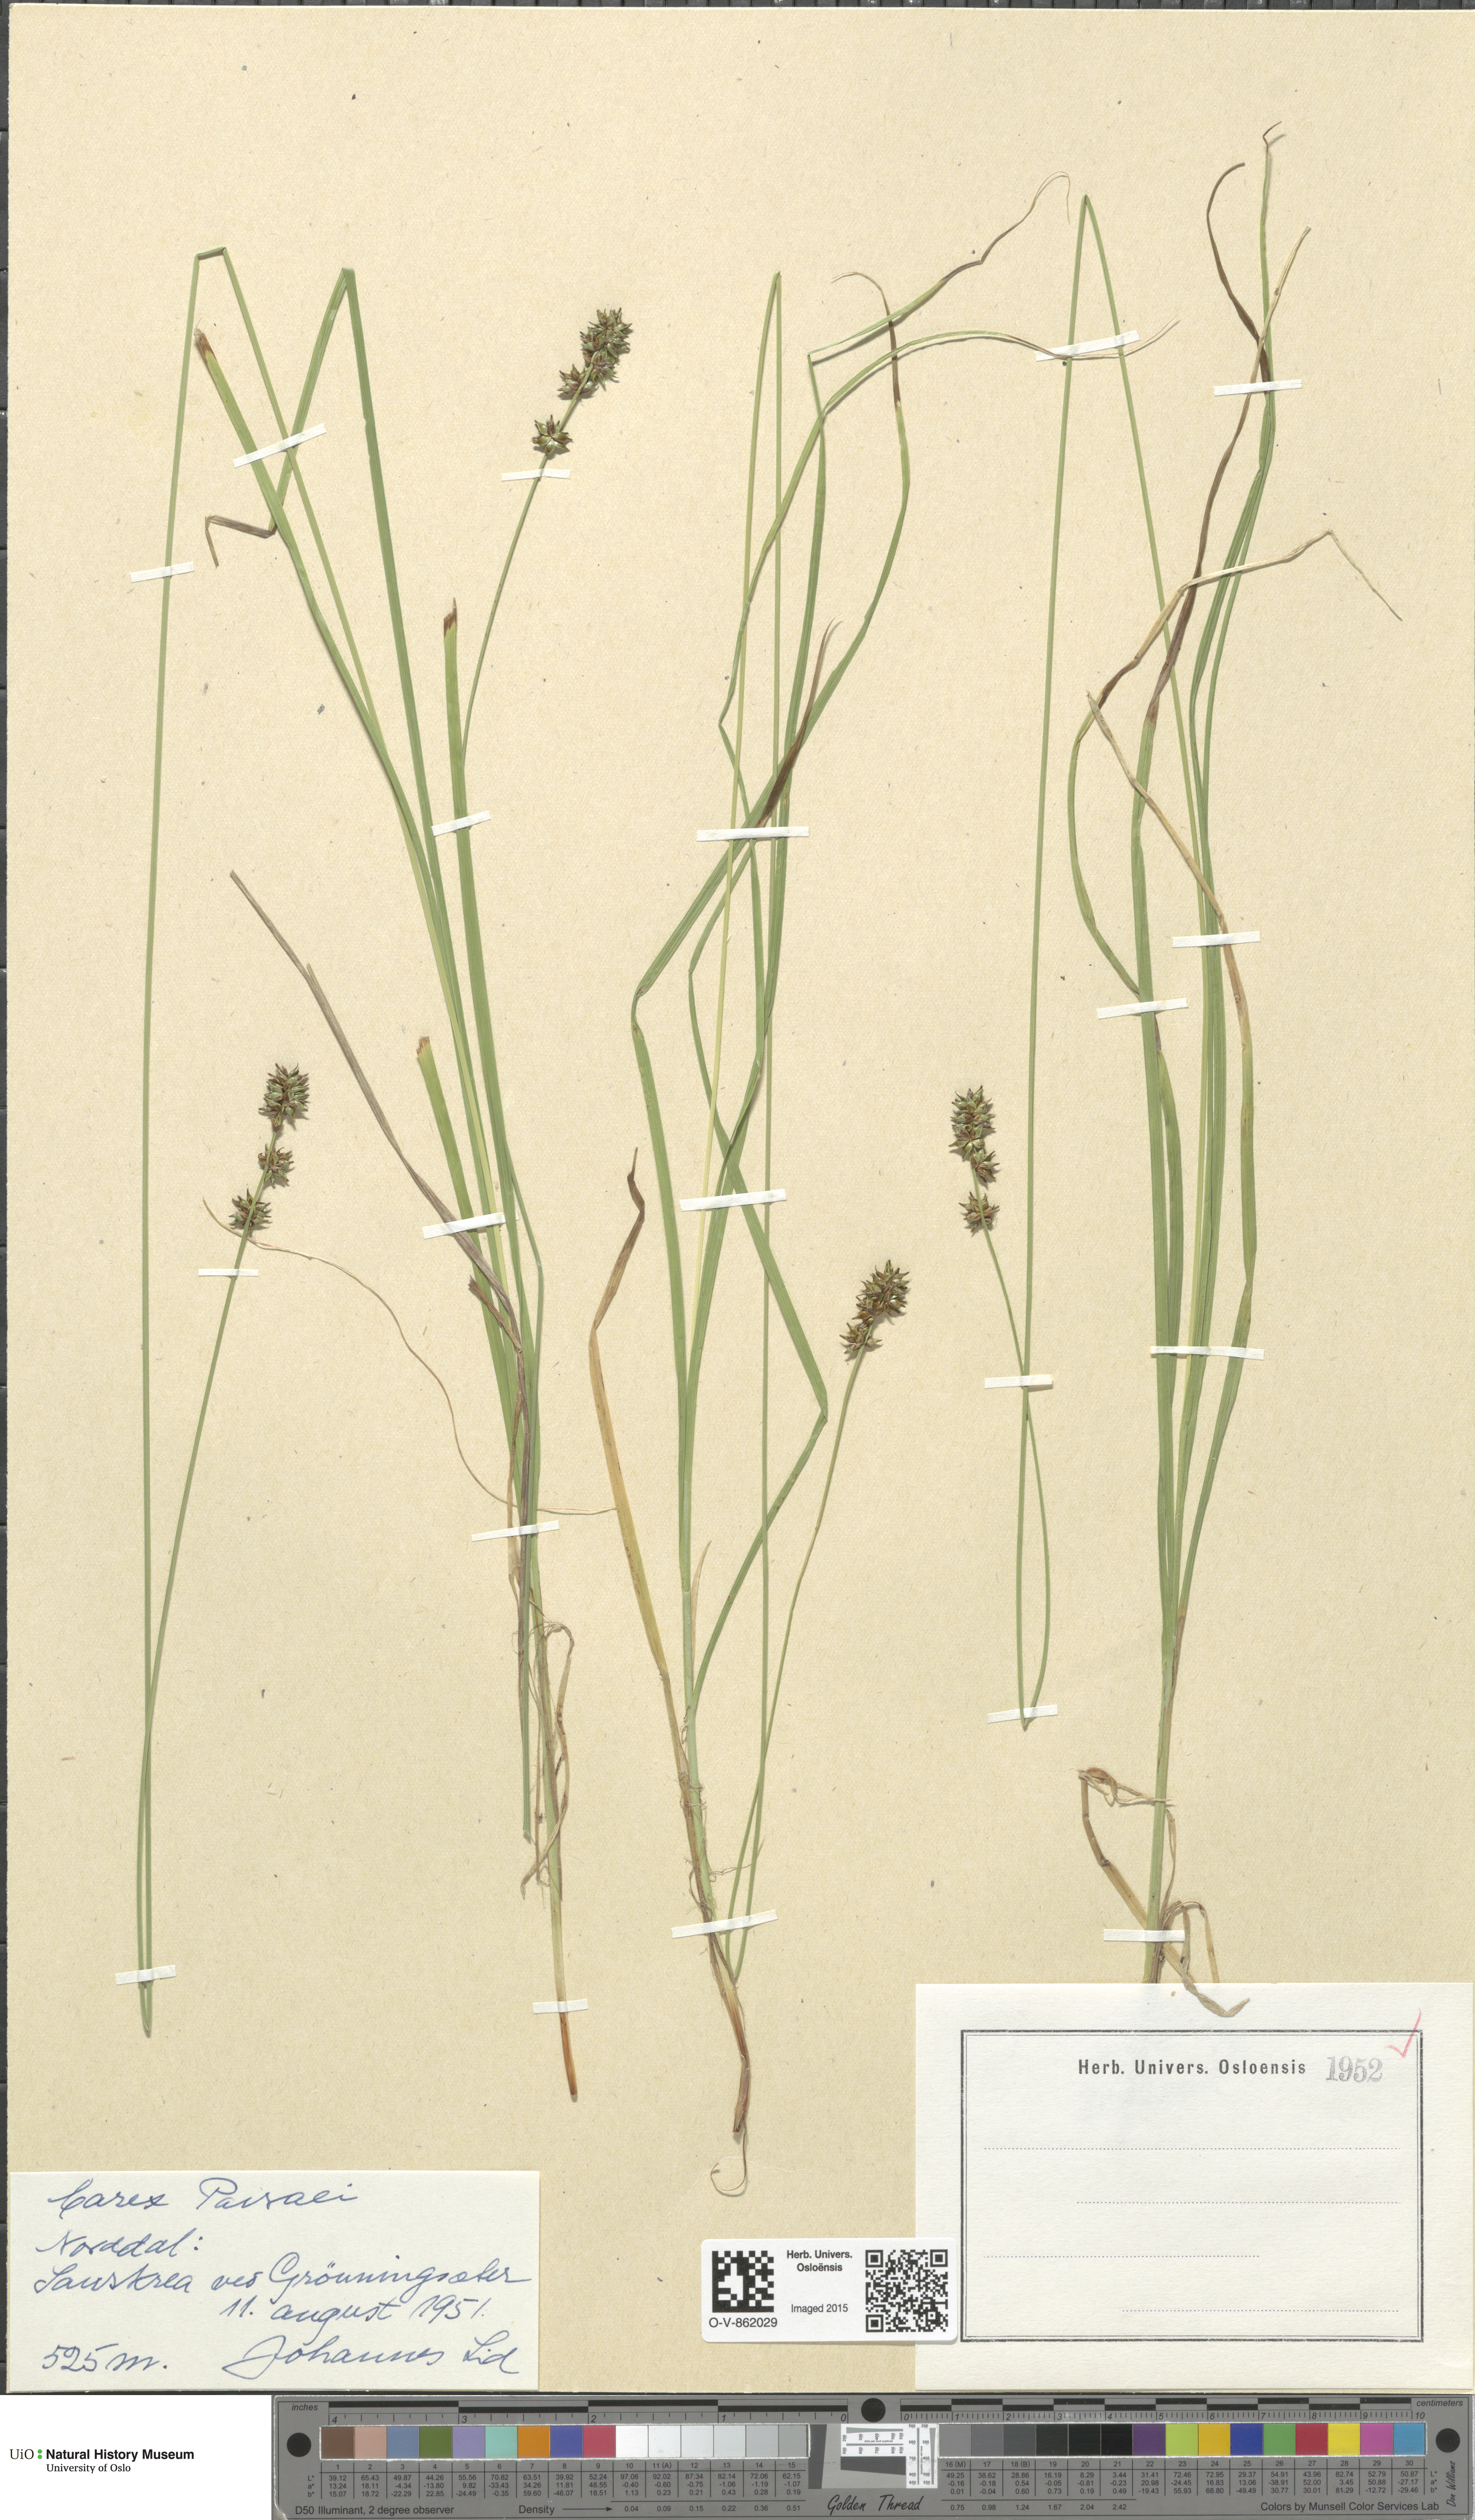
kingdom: Plantae
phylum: Tracheophyta
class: Liliopsida
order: Poales
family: Cyperaceae
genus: Carex
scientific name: Carex pairae
